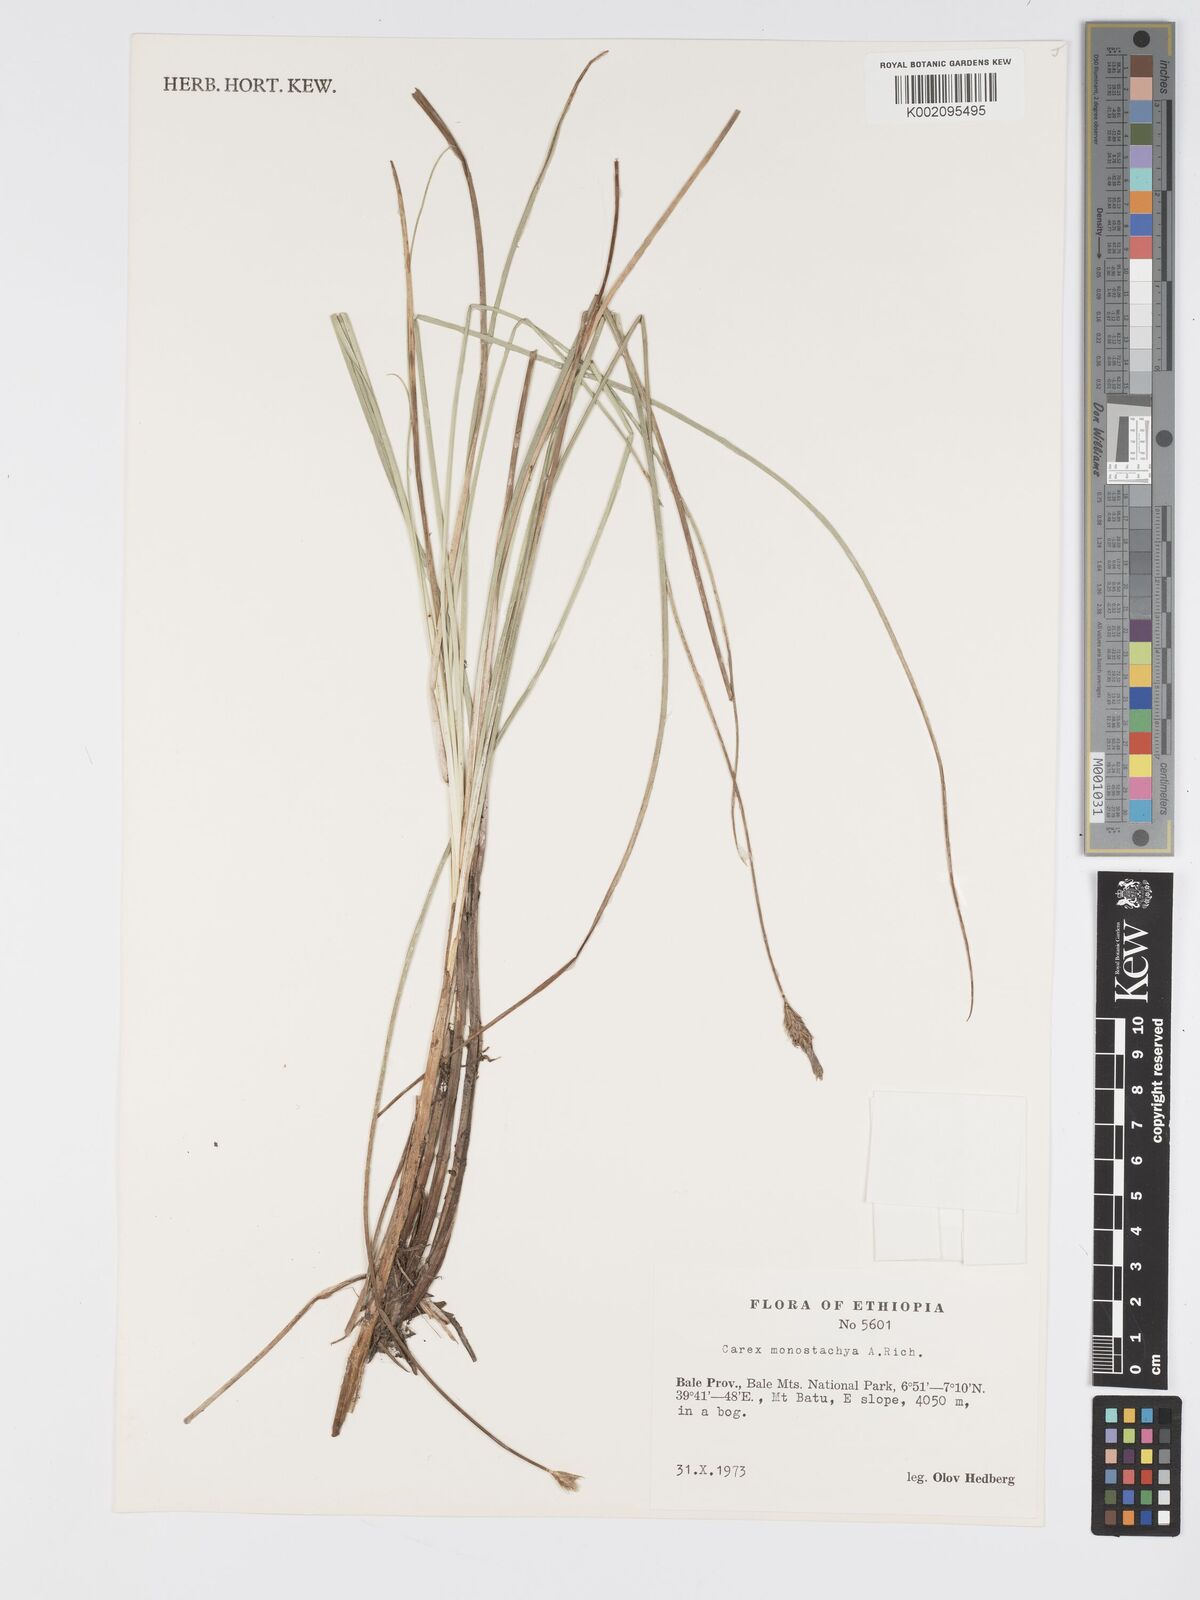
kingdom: Plantae
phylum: Tracheophyta
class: Liliopsida
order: Poales
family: Cyperaceae
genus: Carex
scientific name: Carex monostachya
